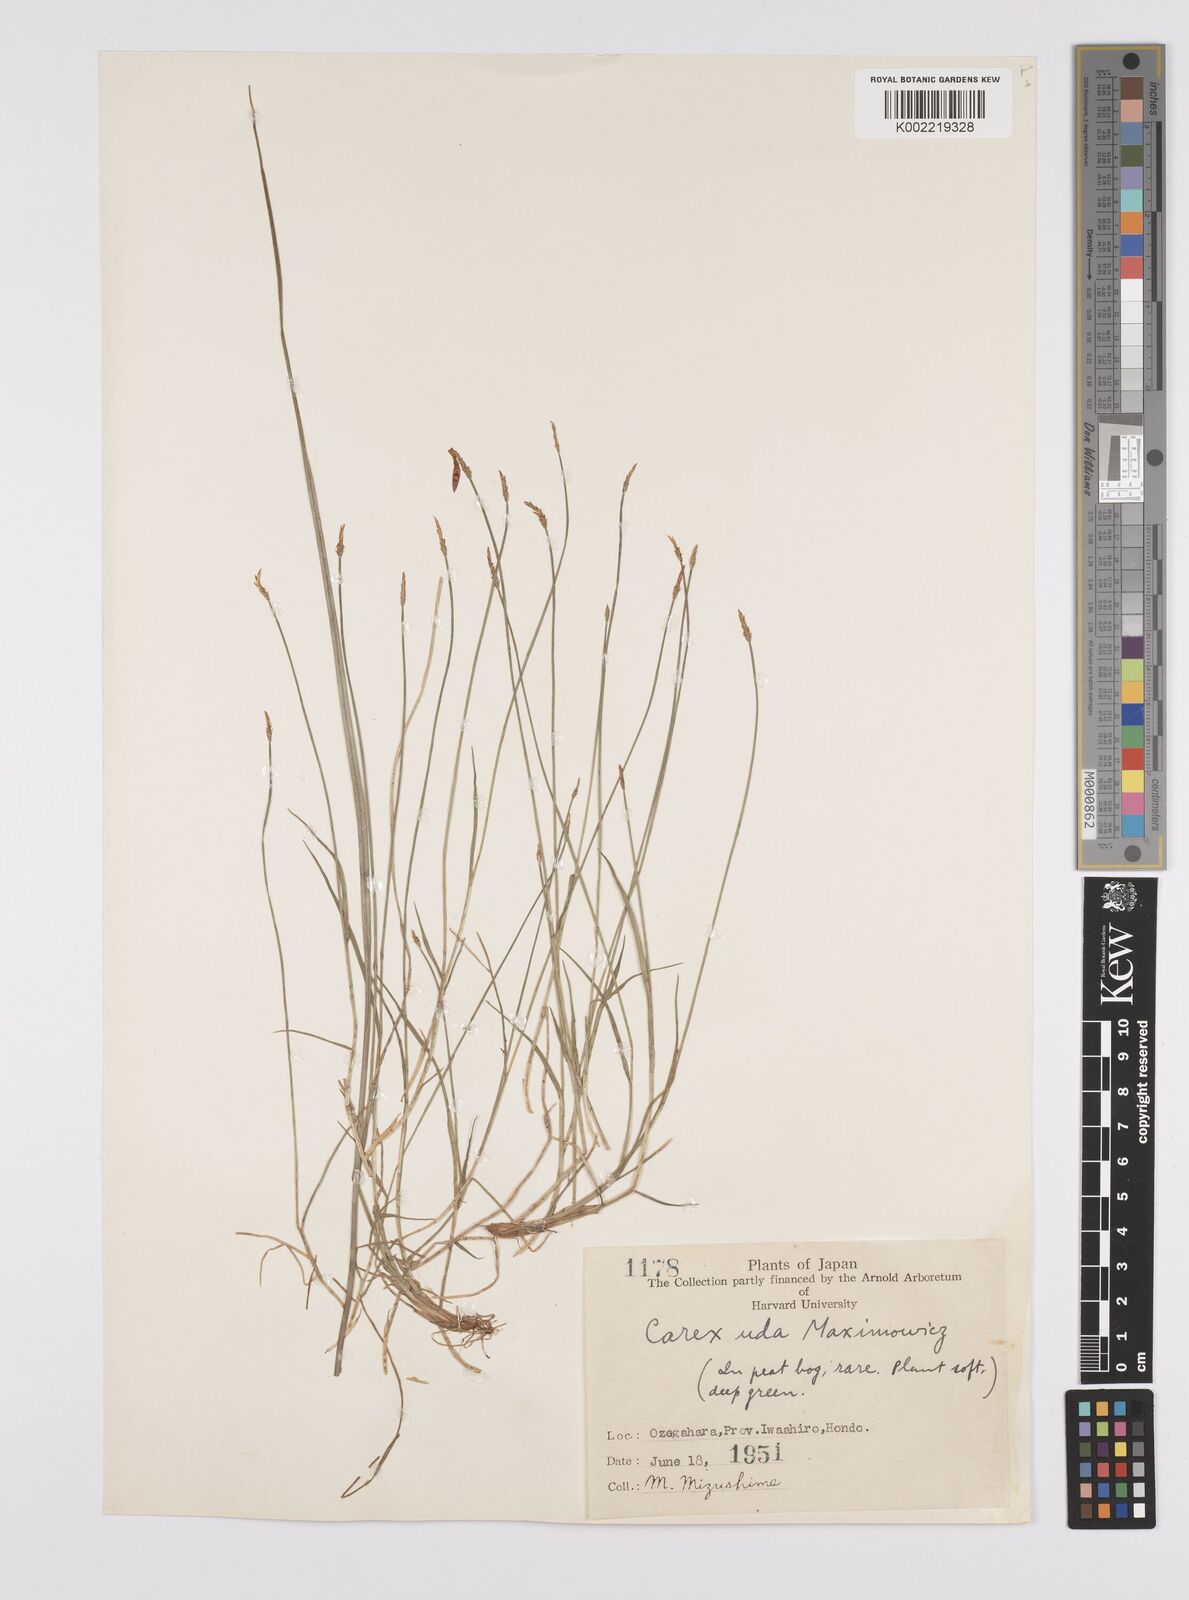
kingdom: Plantae
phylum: Tracheophyta
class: Liliopsida
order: Poales
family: Cyperaceae
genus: Carex
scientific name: Carex uda
